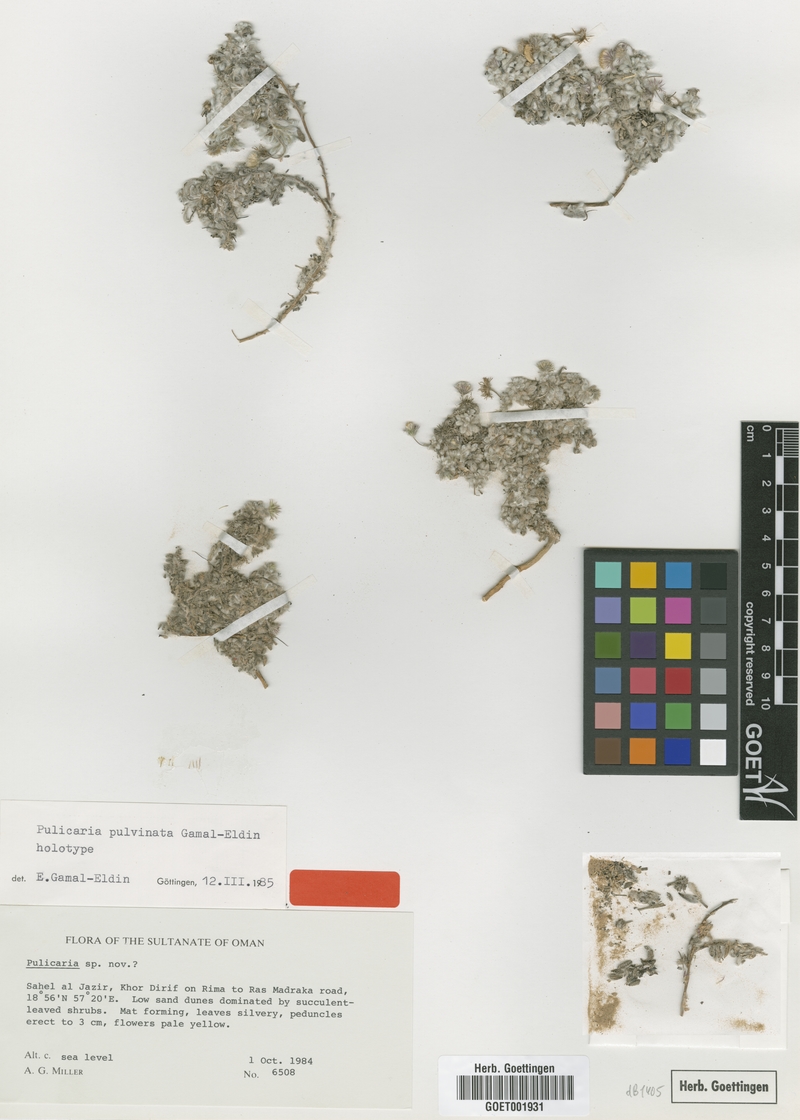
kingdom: Plantae
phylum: Tracheophyta
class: Magnoliopsida
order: Asterales
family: Asteraceae
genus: Pulicaria
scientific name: Pulicaria pulvinata
